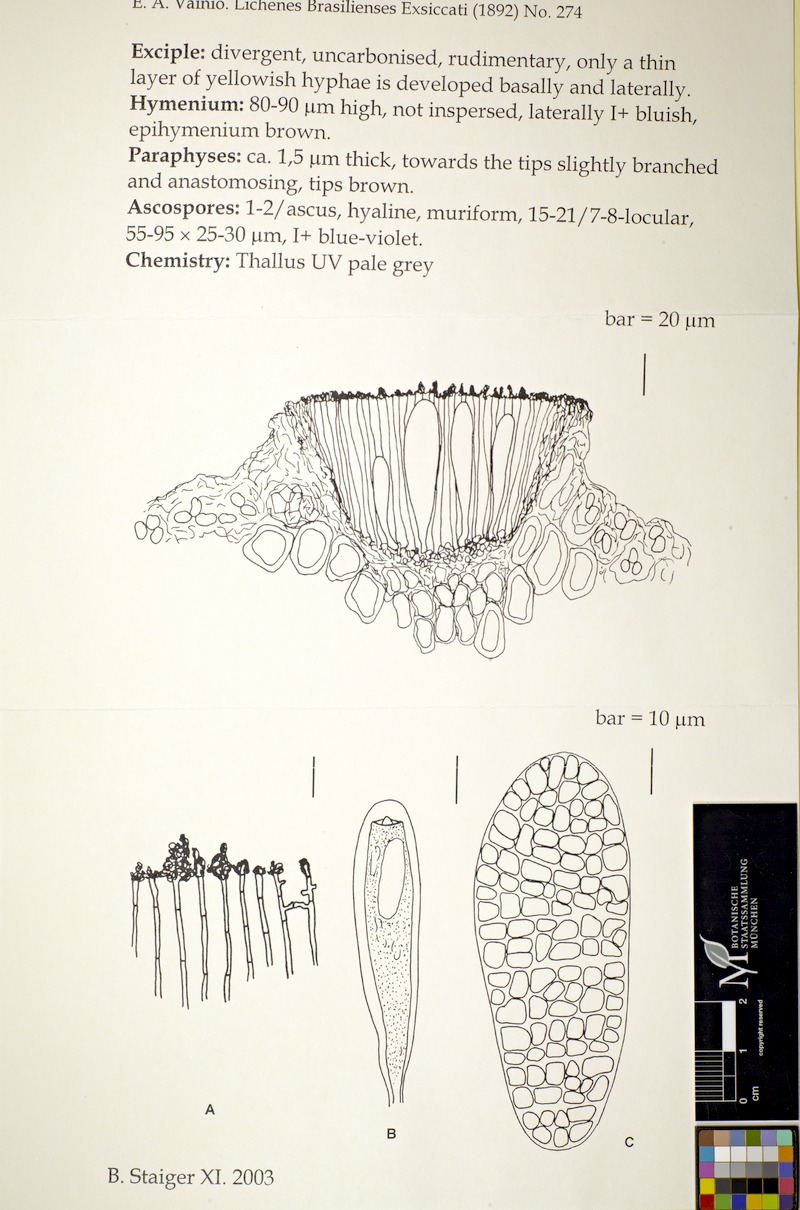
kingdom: Fungi
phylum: Ascomycota
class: Lecanoromycetes
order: Ostropales
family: Graphidaceae
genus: Thalloloma
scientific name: Thalloloma scribillans
